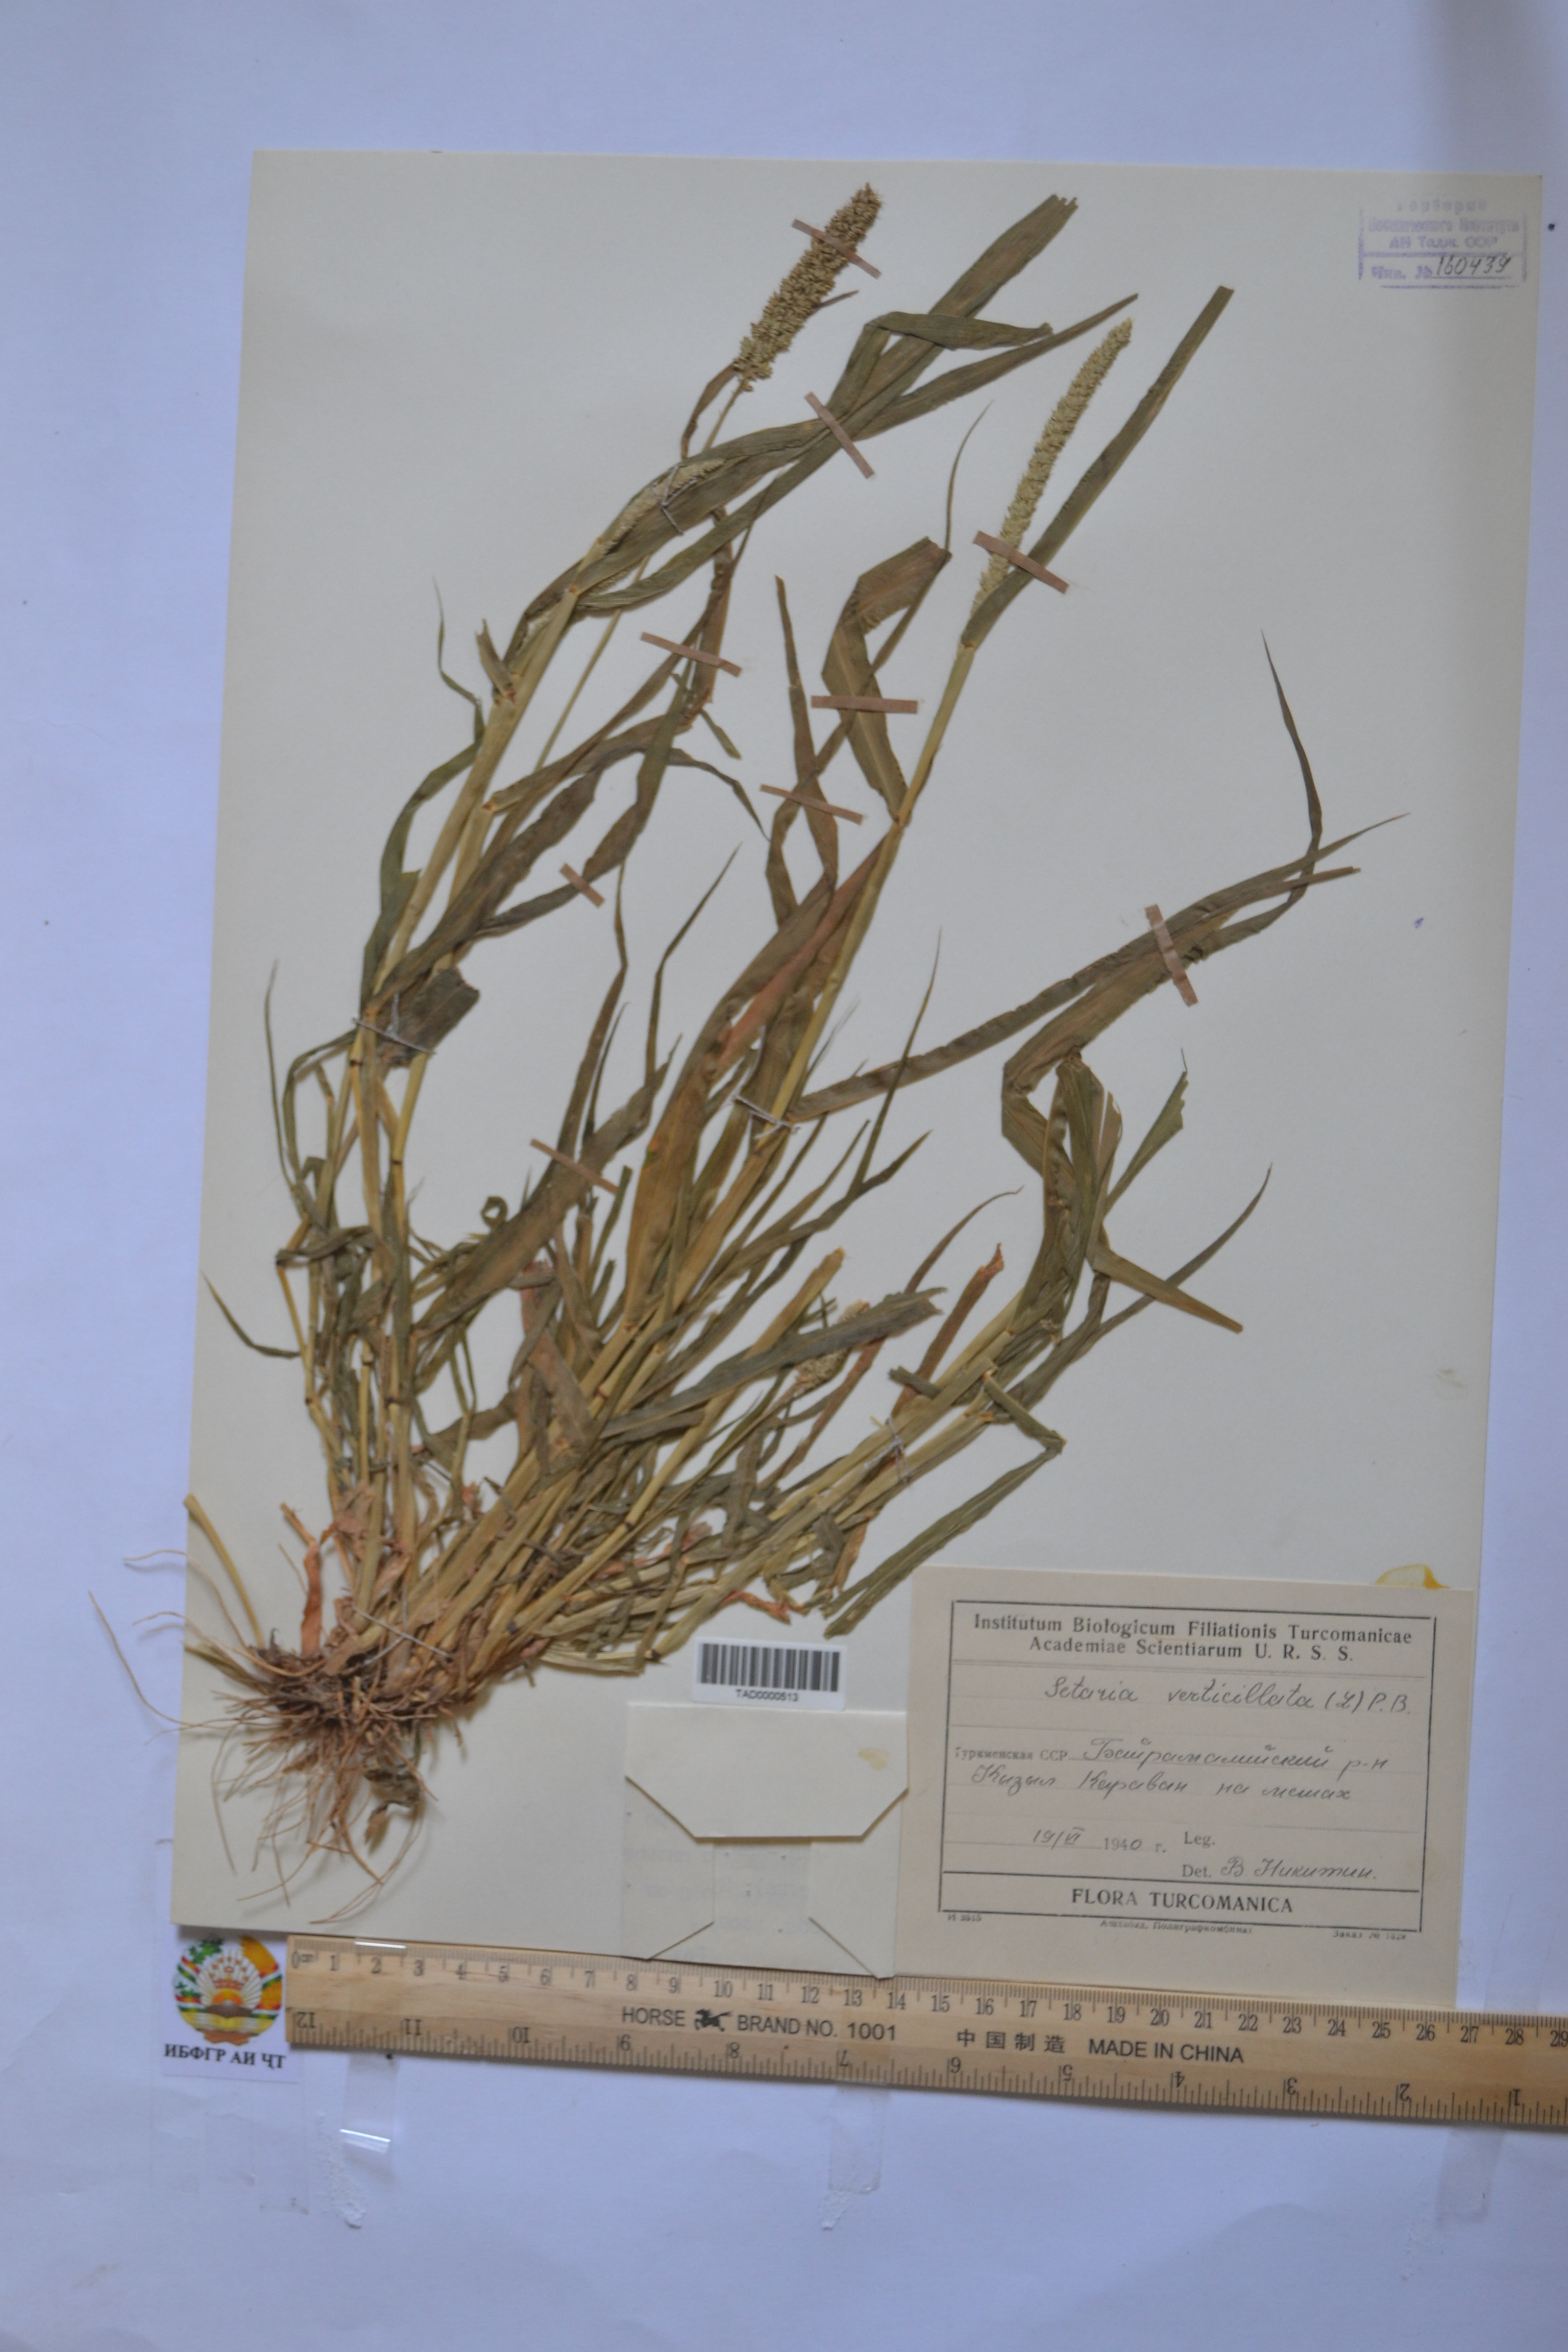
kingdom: Plantae
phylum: Tracheophyta
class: Liliopsida
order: Poales
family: Poaceae
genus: Setaria
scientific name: Setaria verticillata
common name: Hooked bristlegrass
